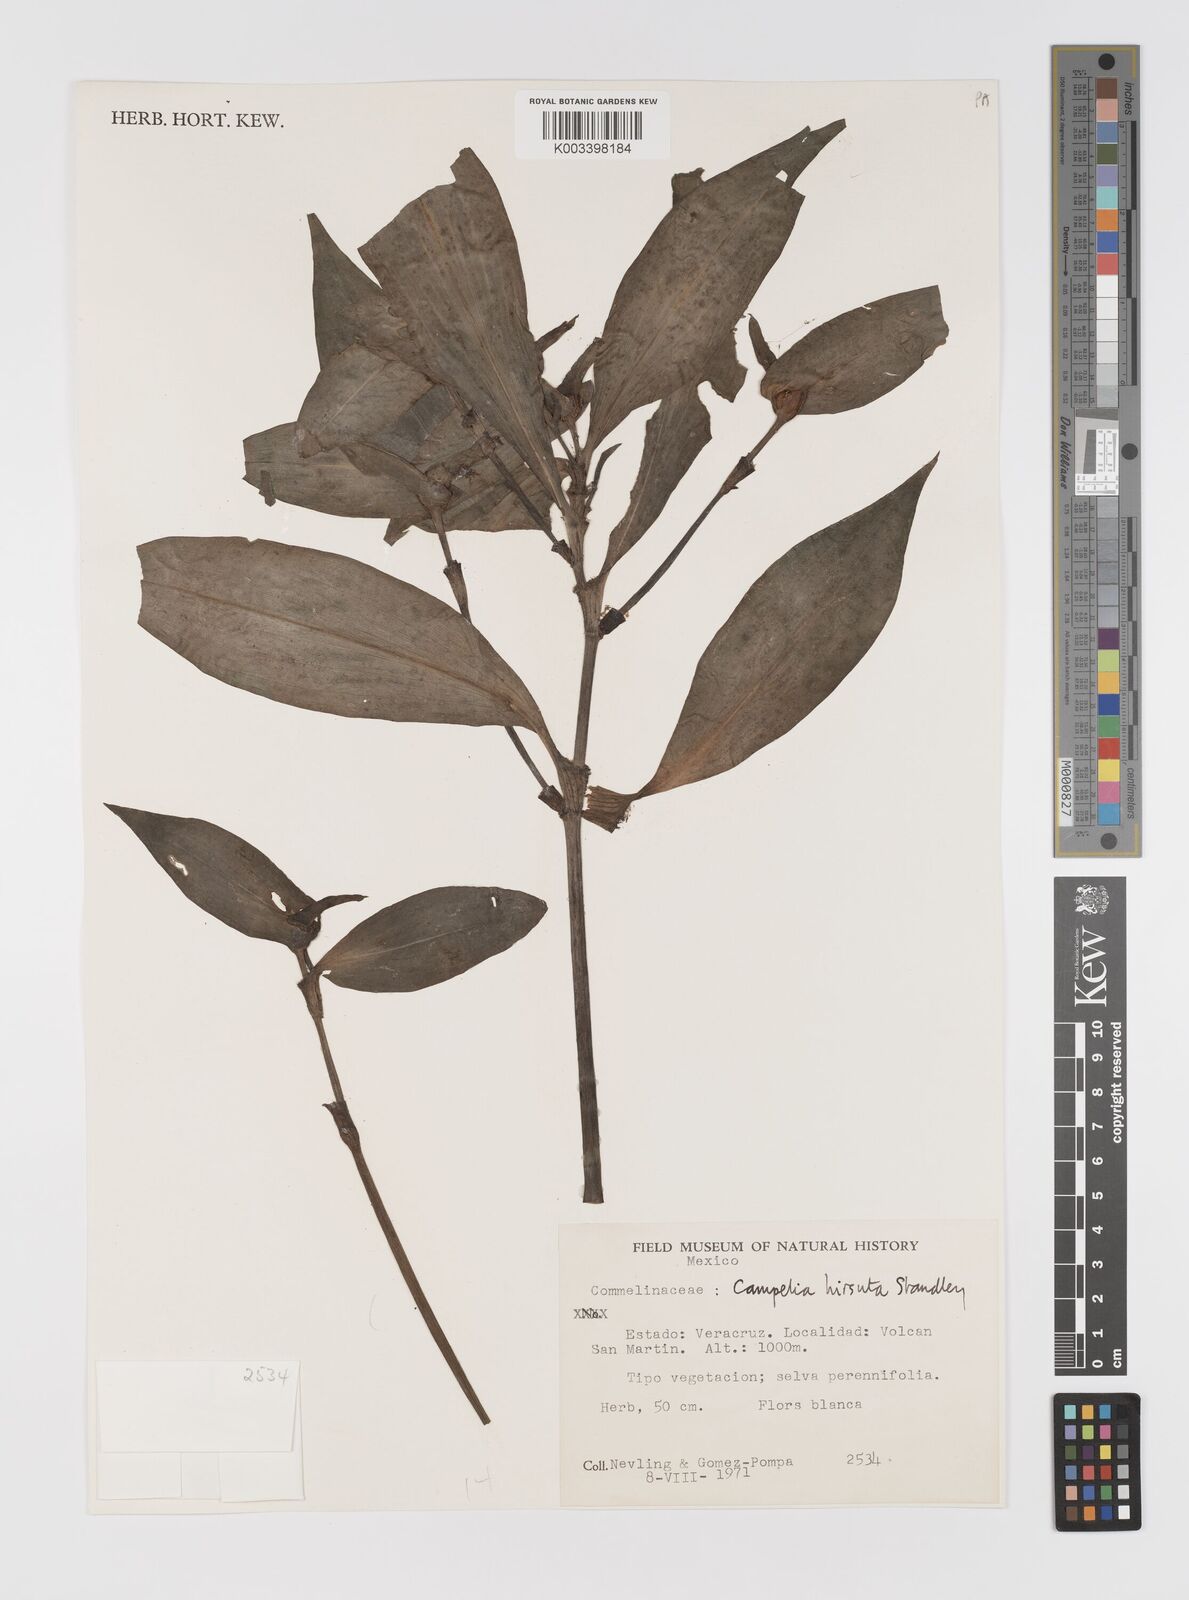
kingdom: Plantae
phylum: Tracheophyta
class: Liliopsida
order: Commelinales
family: Commelinaceae
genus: Tradescantia
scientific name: Tradescantia schippii
